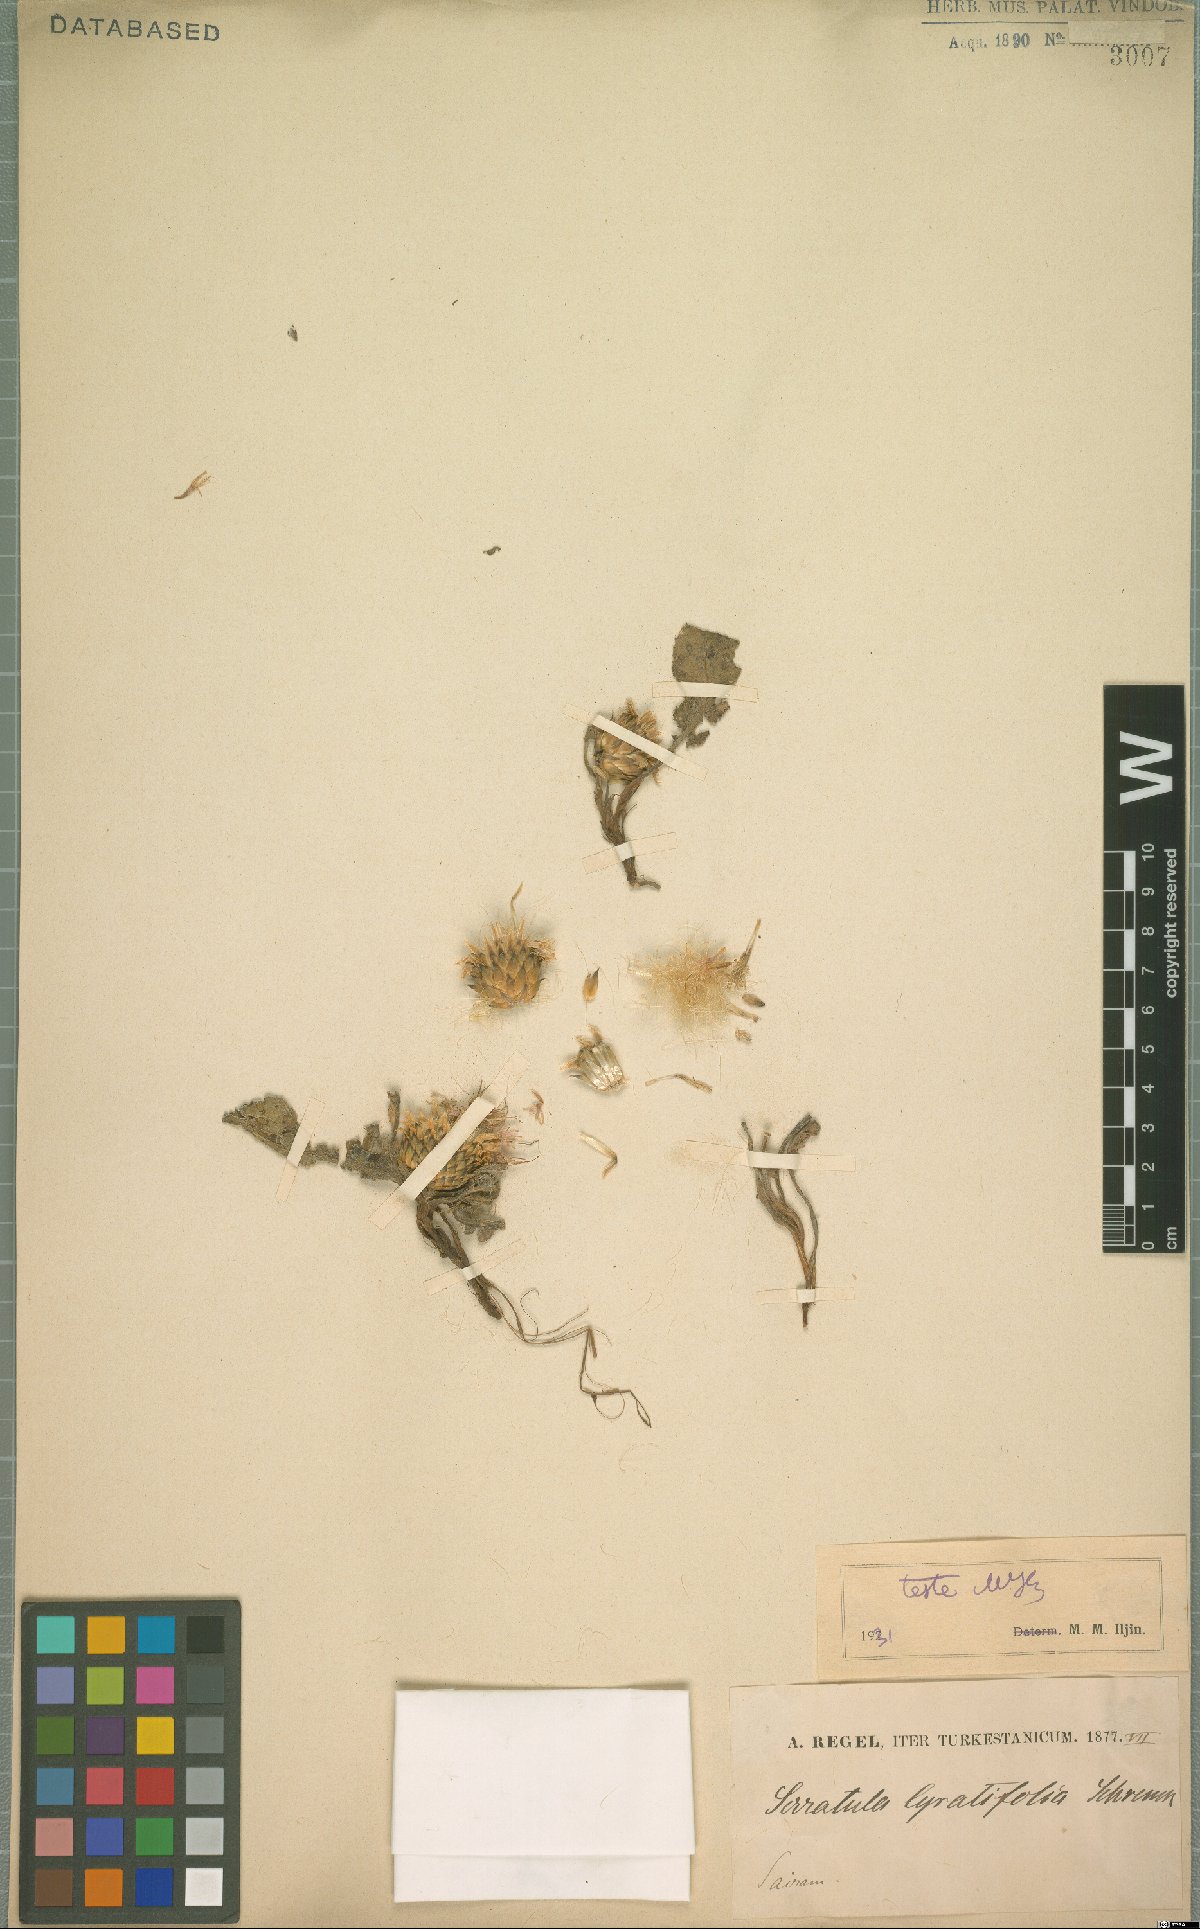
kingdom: Plantae
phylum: Tracheophyta
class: Magnoliopsida
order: Asterales
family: Asteraceae
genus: Klasea
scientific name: Klasea lyratifolia
